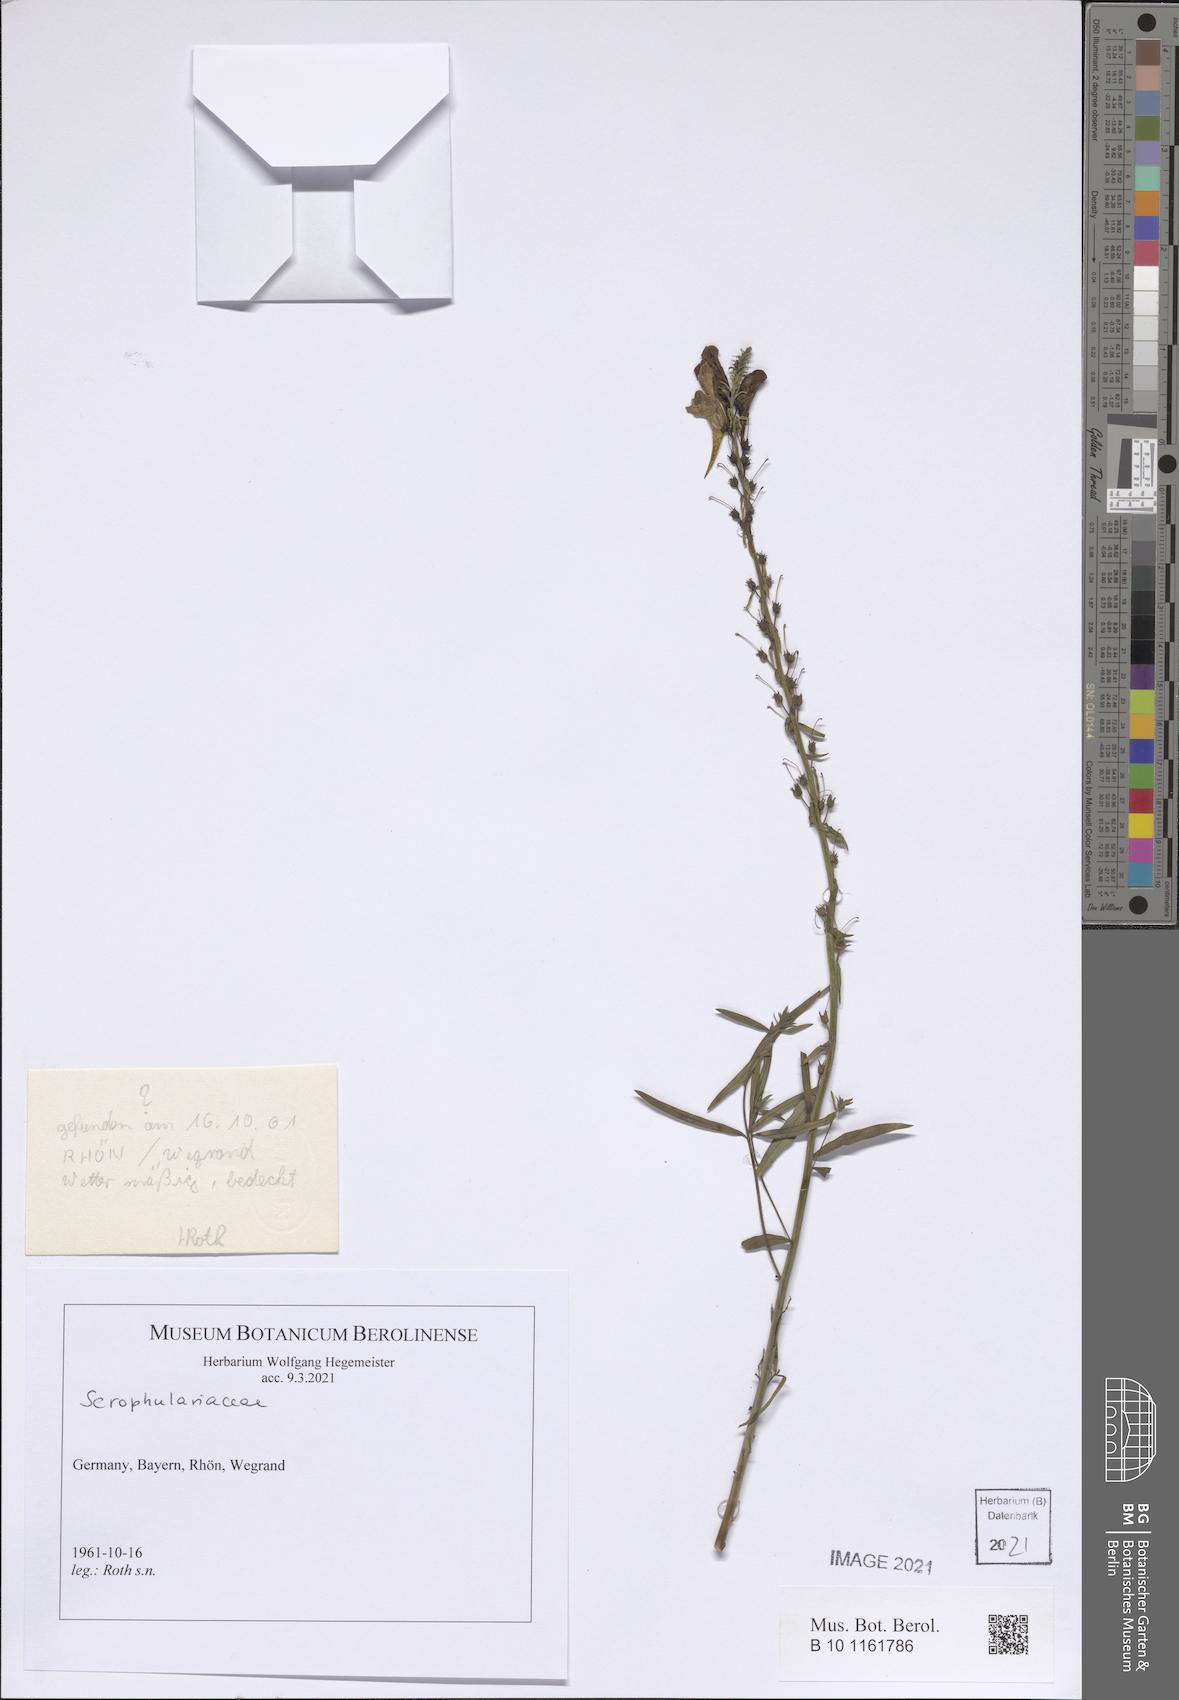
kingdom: Plantae
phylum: Tracheophyta
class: Magnoliopsida
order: Lamiales
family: Scrophulariaceae
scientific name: Scrophulariaceae
